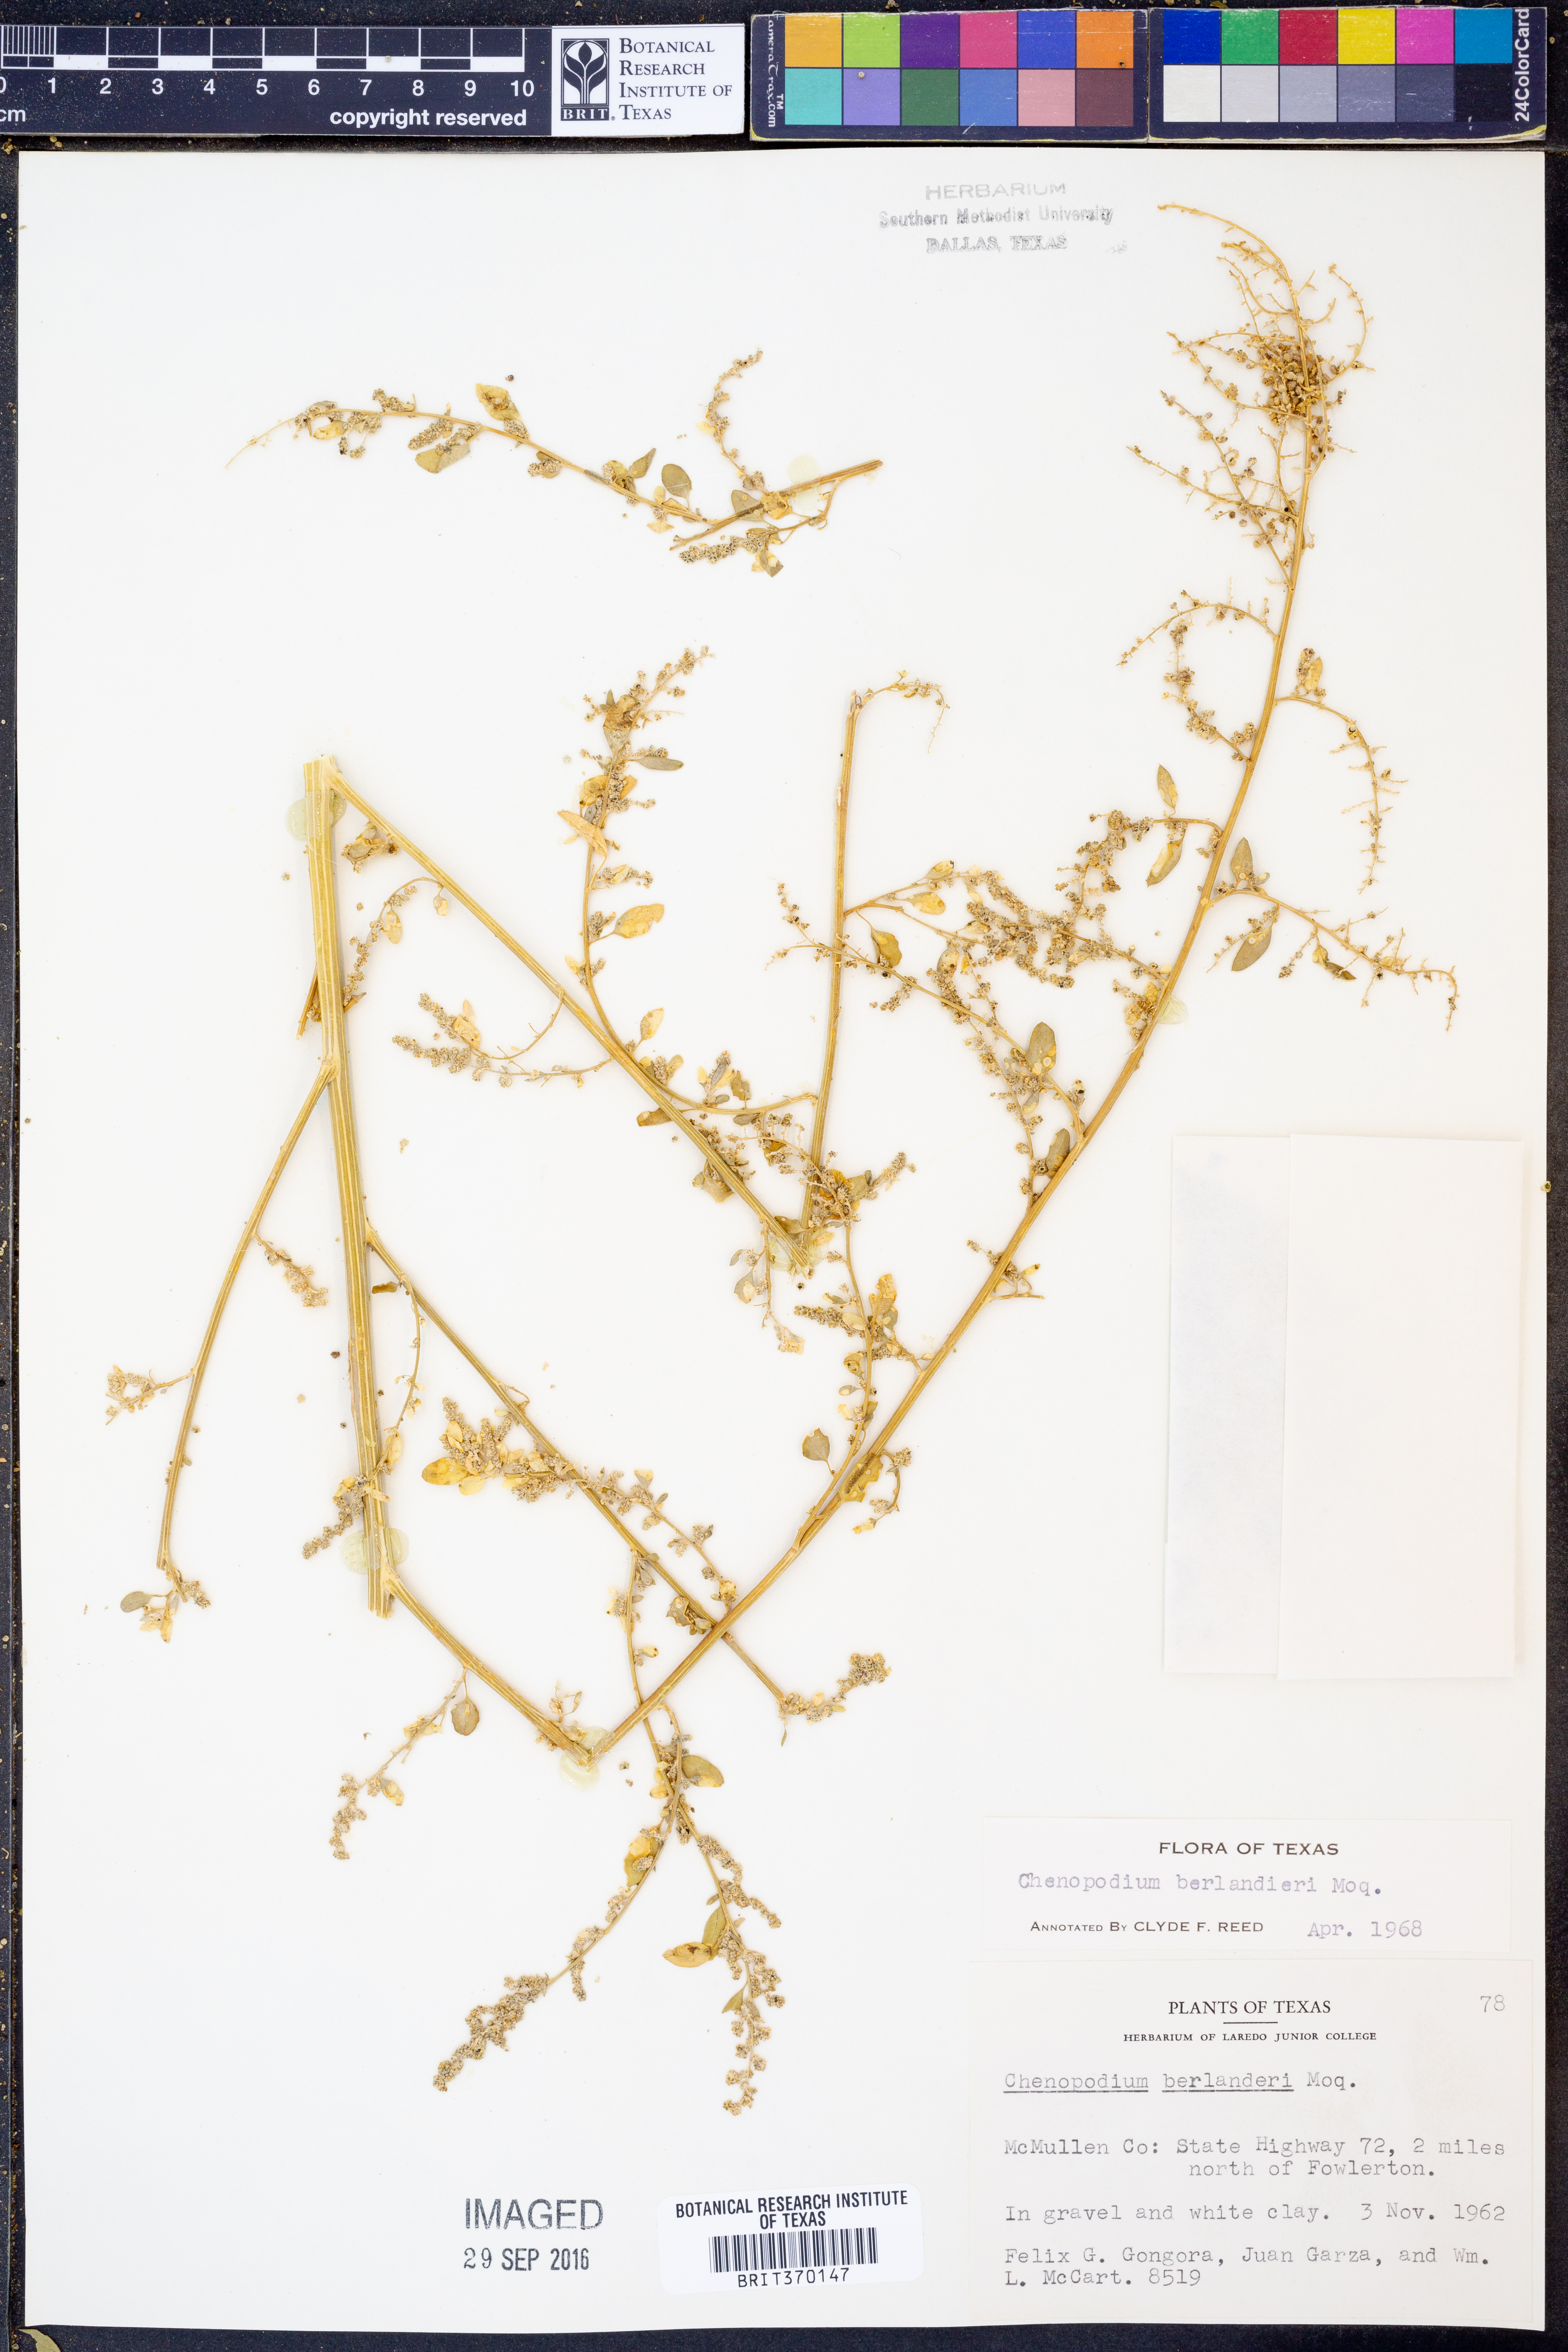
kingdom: Plantae
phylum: Tracheophyta
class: Magnoliopsida
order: Caryophyllales
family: Amaranthaceae
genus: Chenopodium
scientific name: Chenopodium berlandieri
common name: Pit-seed goosefoot
